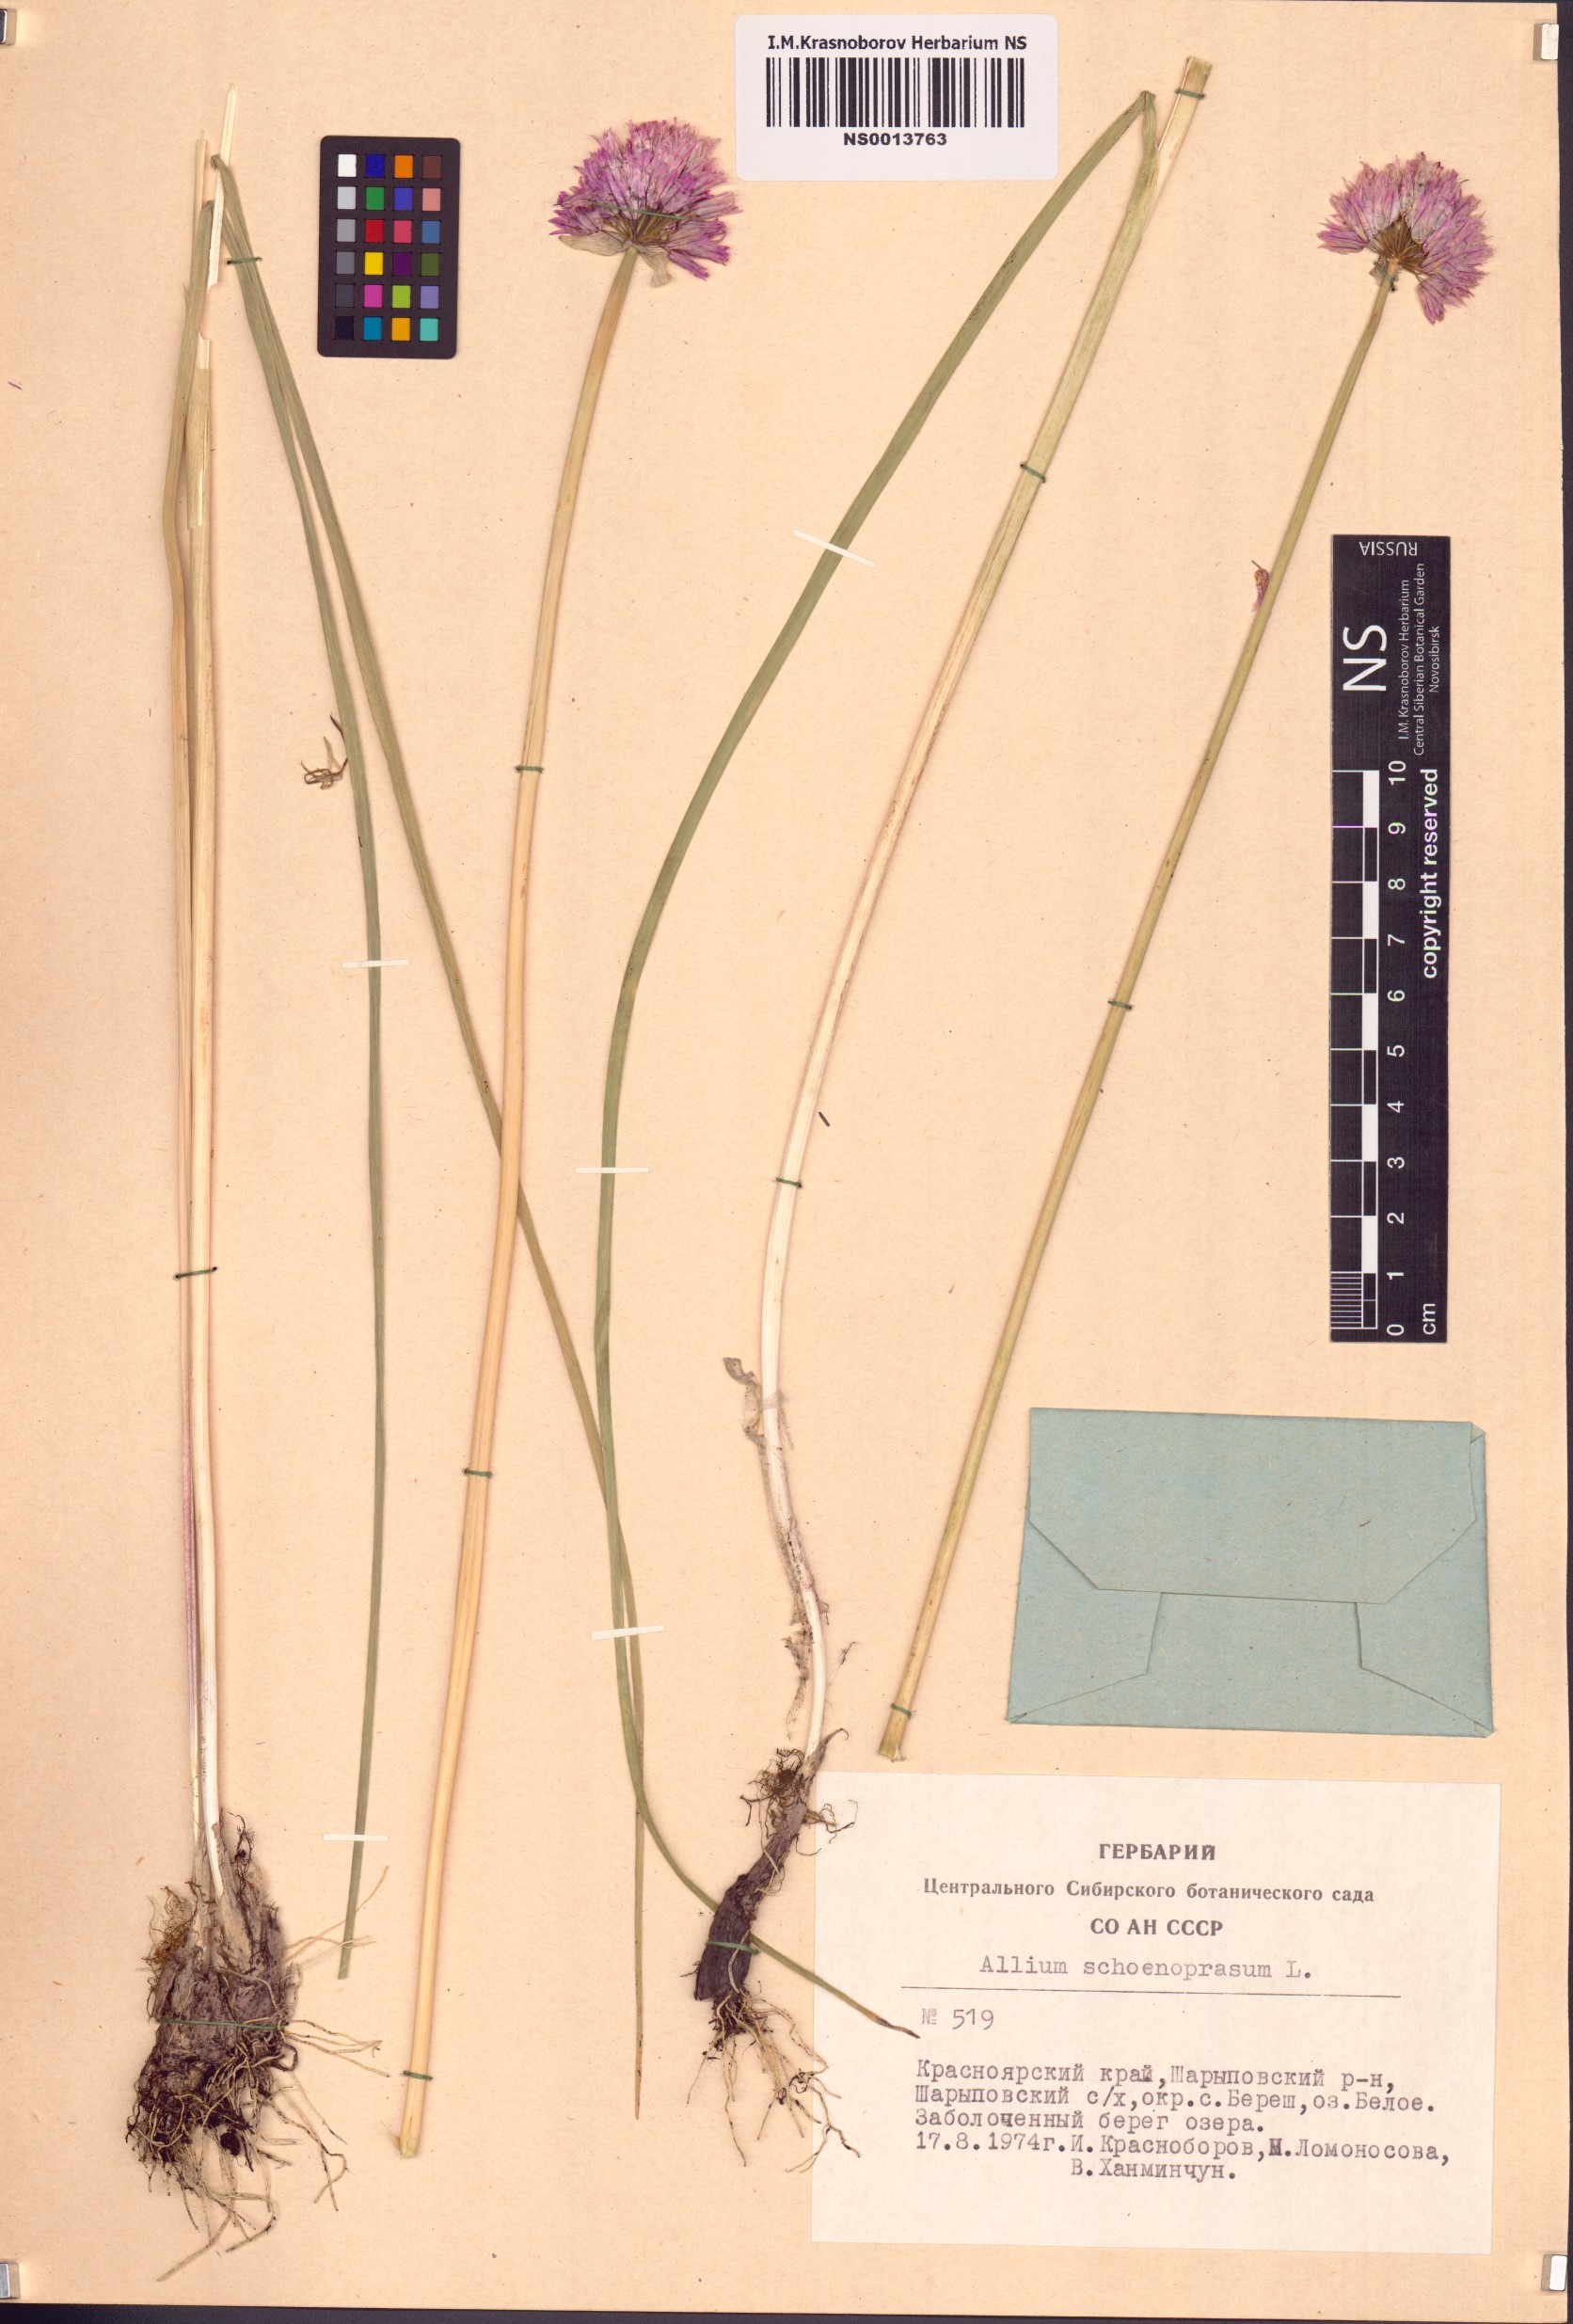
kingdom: Plantae
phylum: Tracheophyta
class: Liliopsida
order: Asparagales
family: Amaryllidaceae
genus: Allium
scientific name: Allium schoenoprasum
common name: Chives
